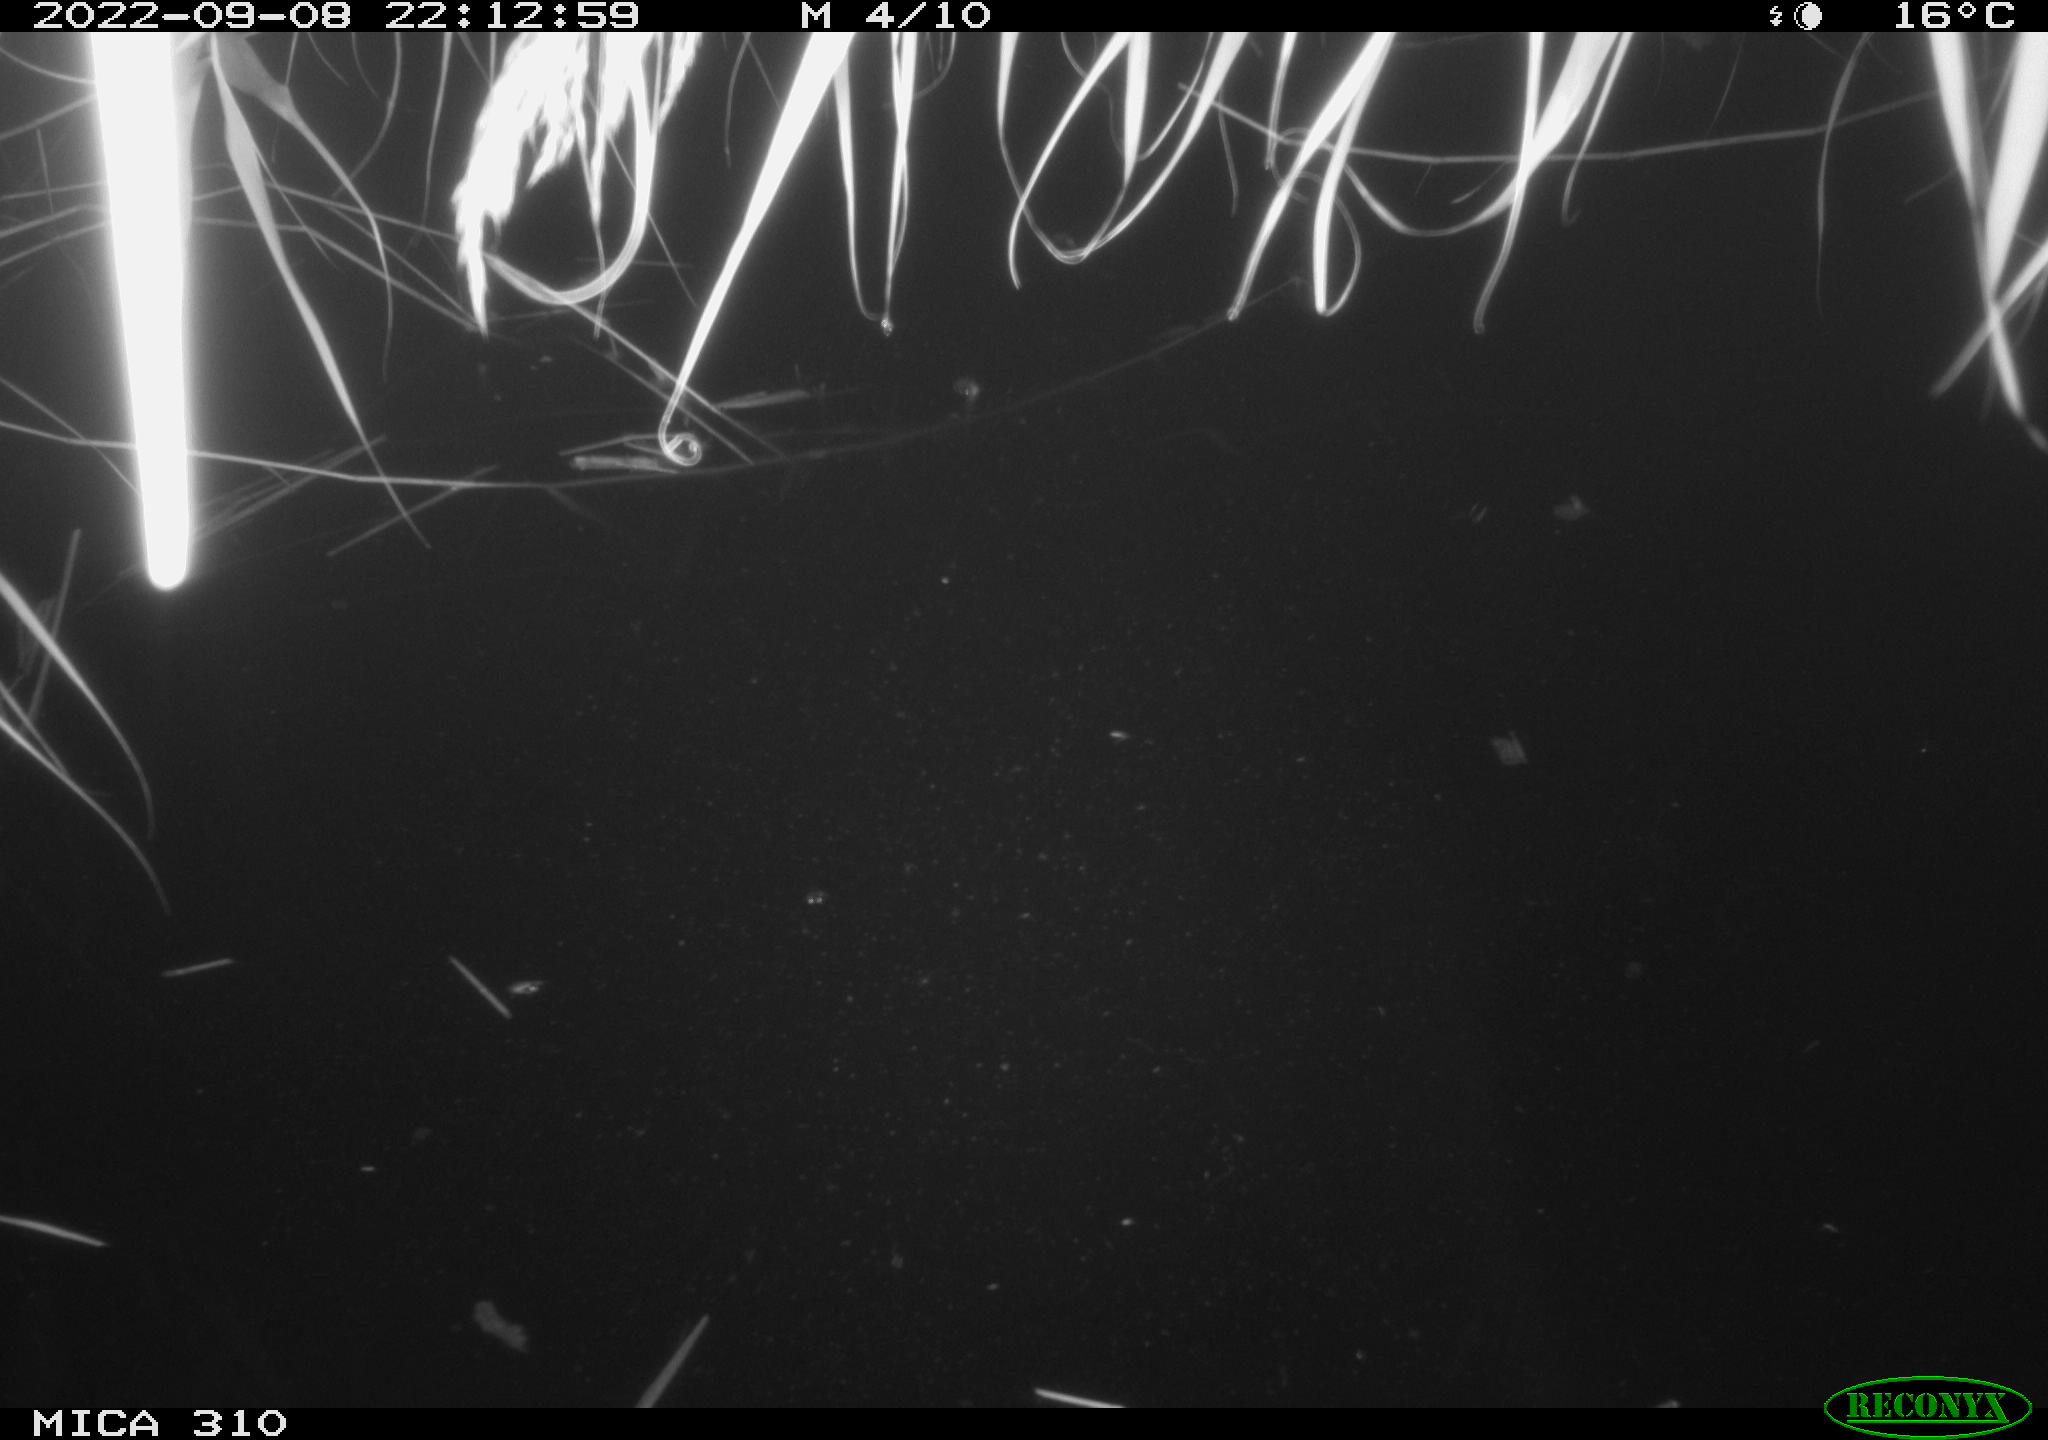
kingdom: Animalia
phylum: Chordata
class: Aves
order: Anseriformes
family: Anatidae
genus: Anas
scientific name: Anas
